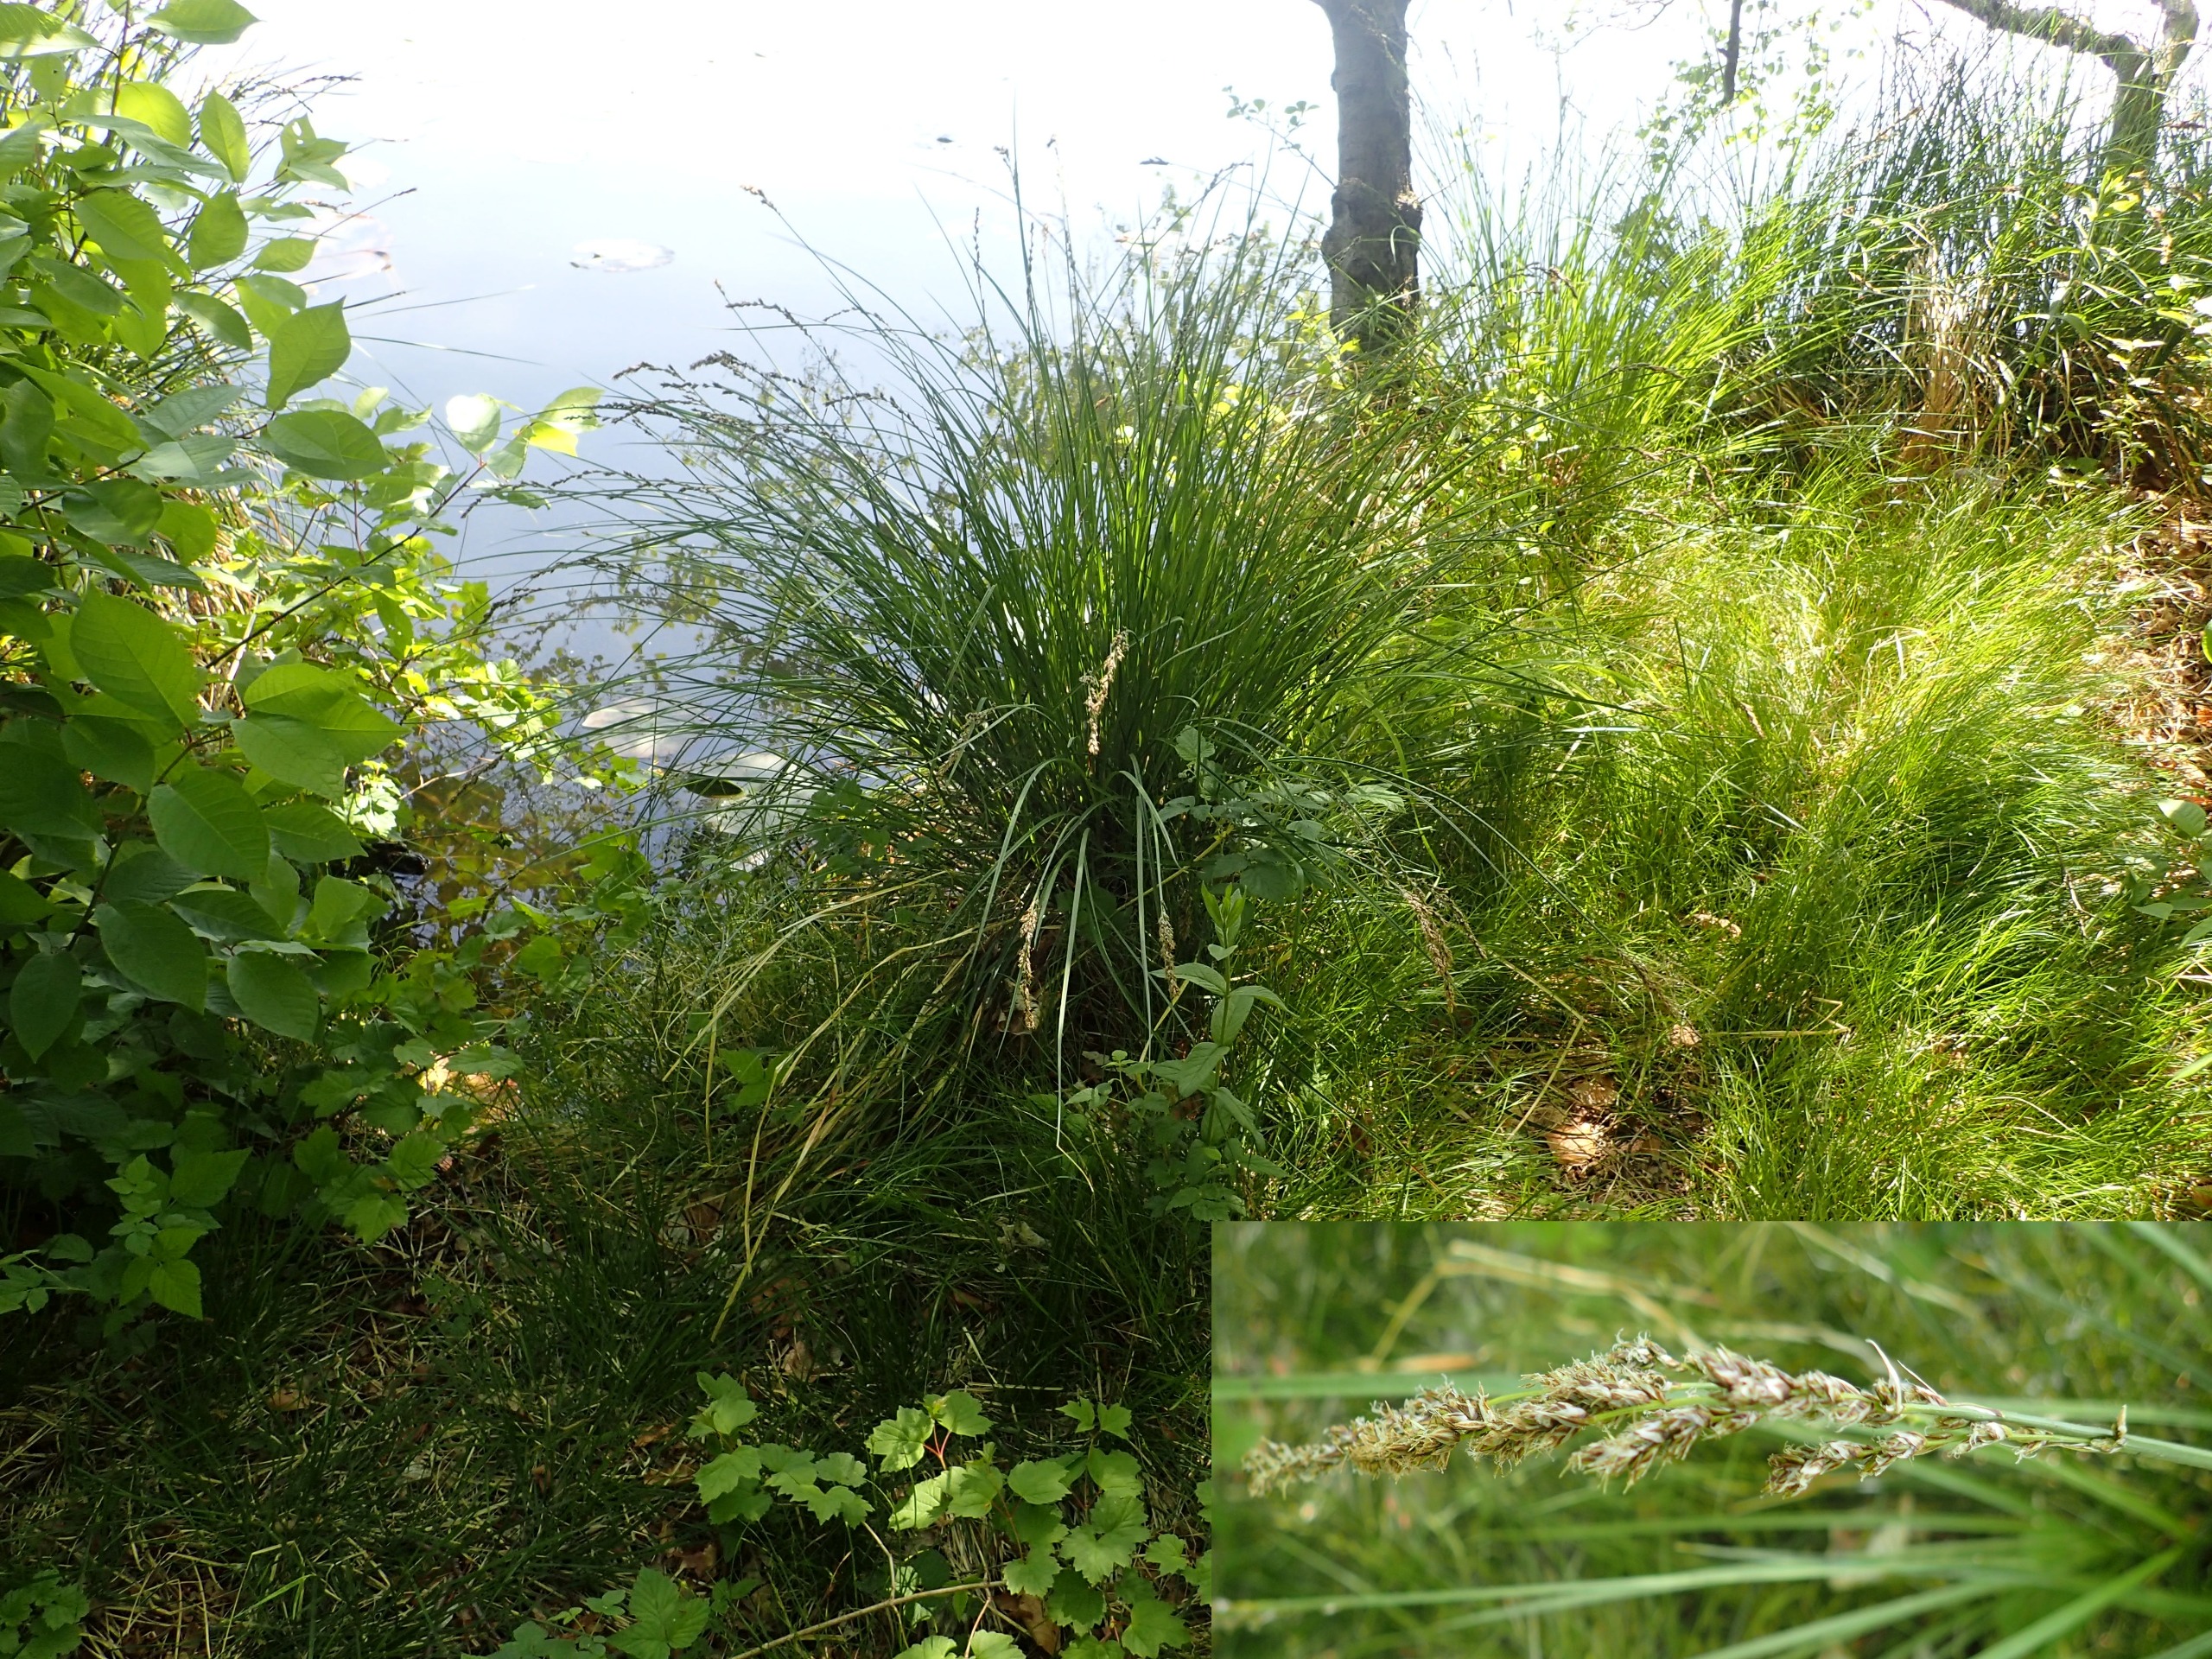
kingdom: Plantae
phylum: Tracheophyta
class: Liliopsida
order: Poales
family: Cyperaceae
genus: Carex
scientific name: Carex paniculata
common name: Top-star
